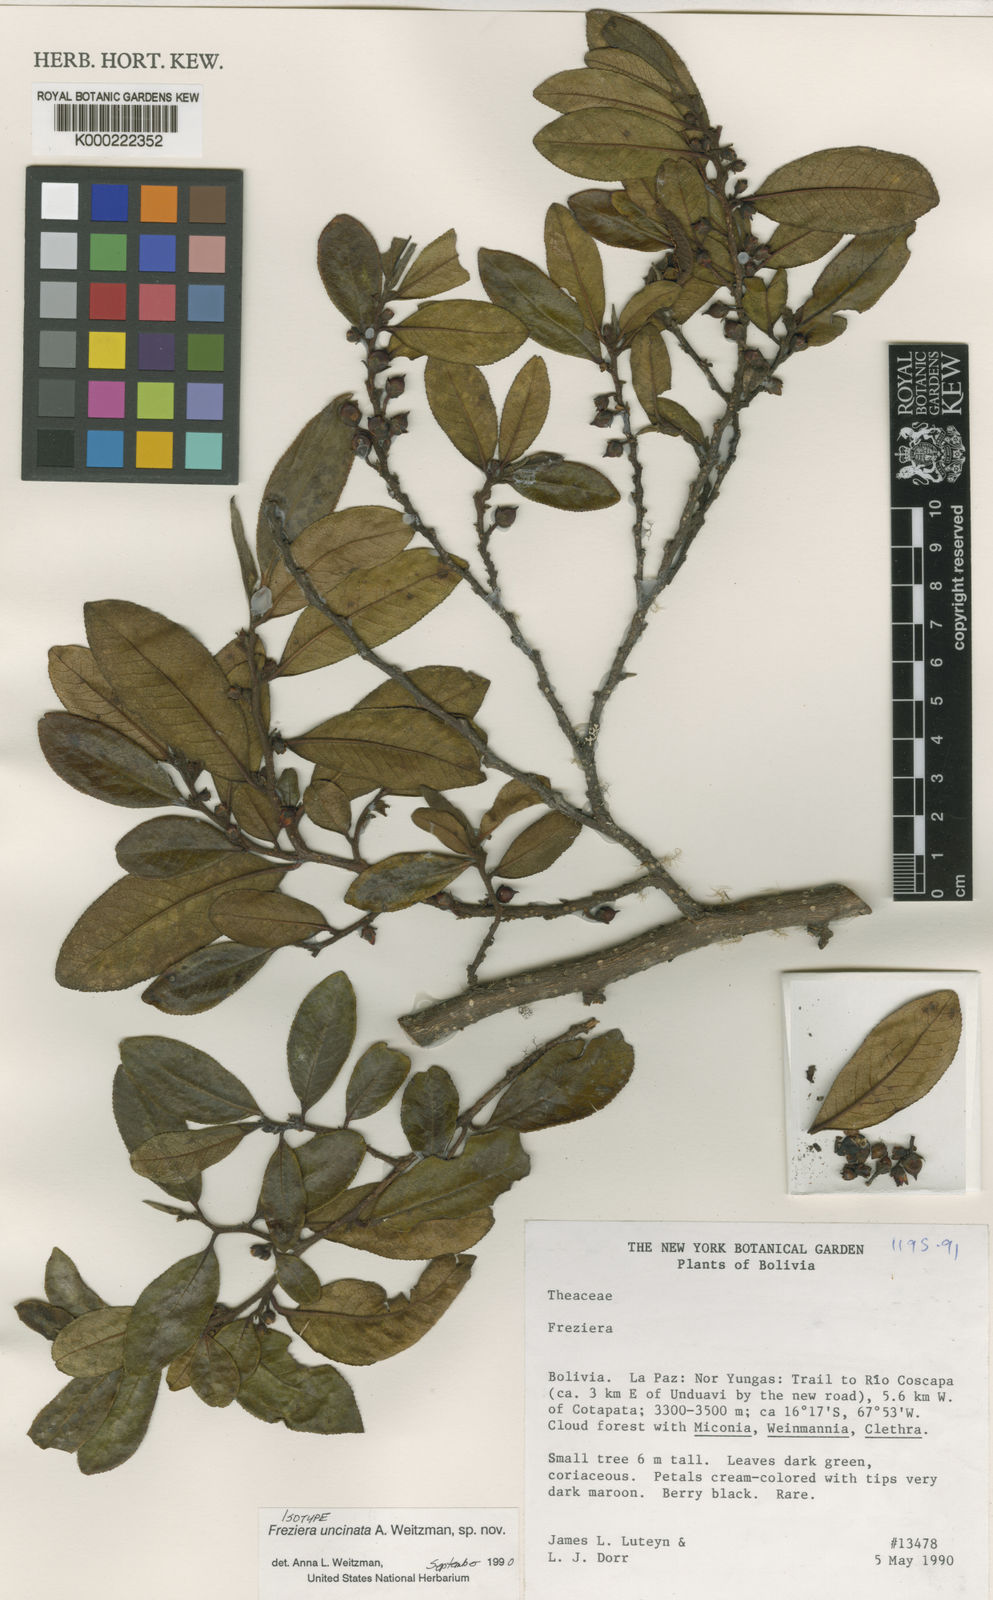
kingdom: Plantae
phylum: Tracheophyta
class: Magnoliopsida
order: Ericales
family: Pentaphylacaceae
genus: Freziera
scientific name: Freziera
